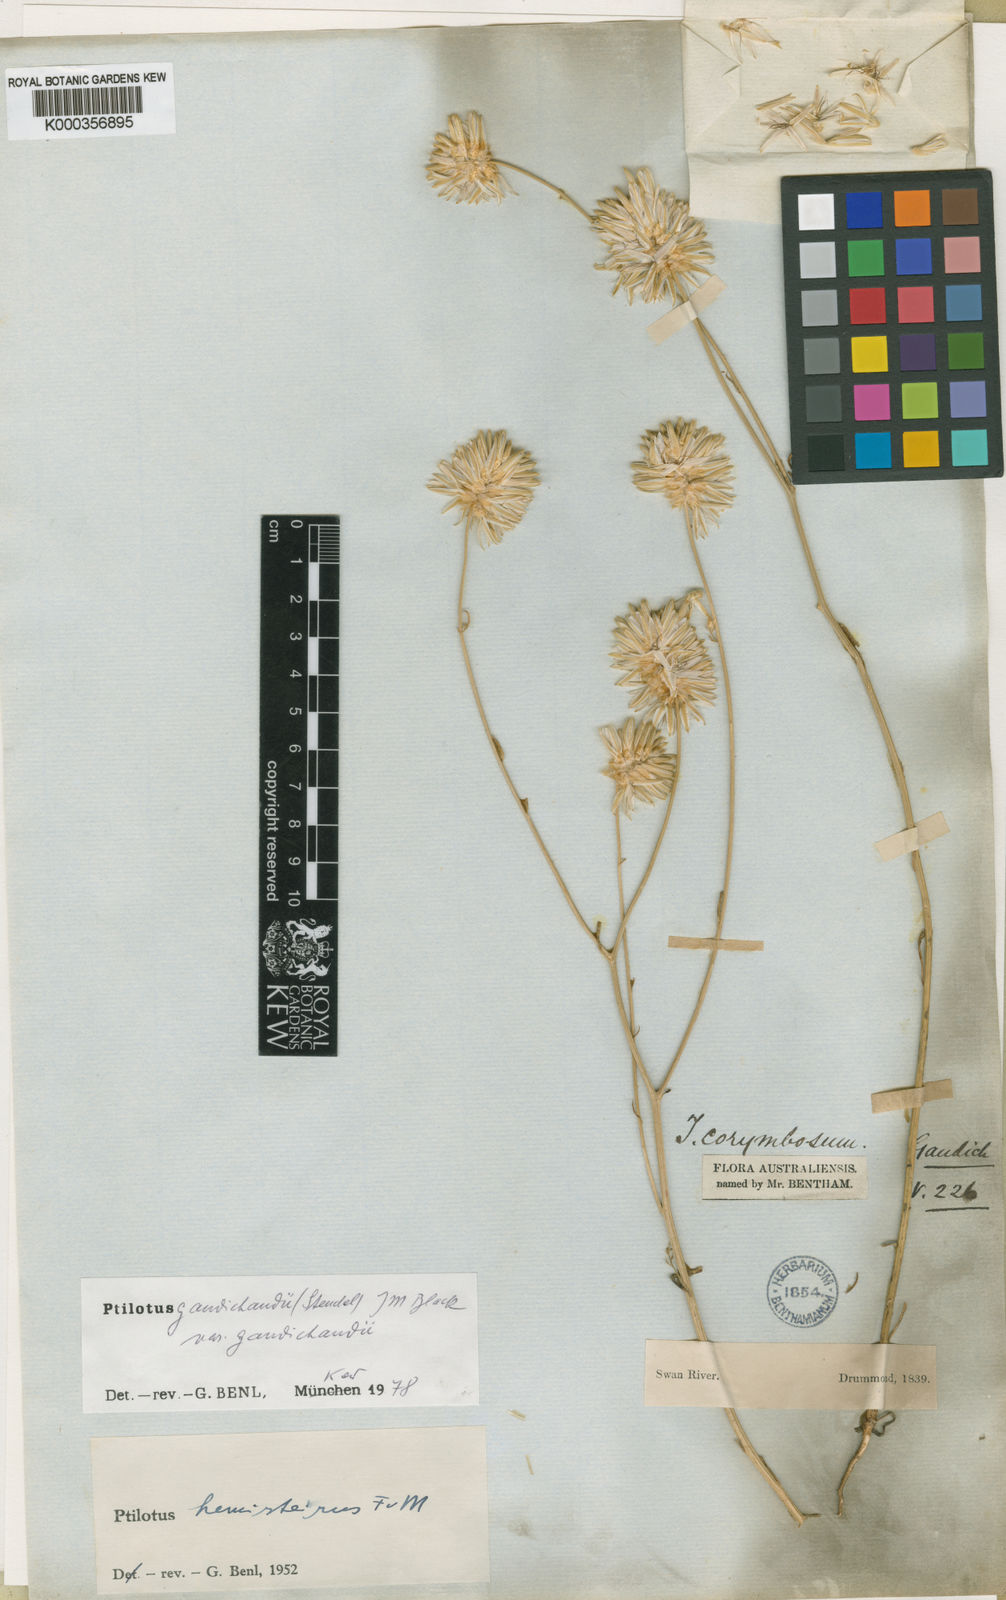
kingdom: Plantae
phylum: Tracheophyta
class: Magnoliopsida
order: Caryophyllales
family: Amaranthaceae
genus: Ptilotus
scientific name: Ptilotus
